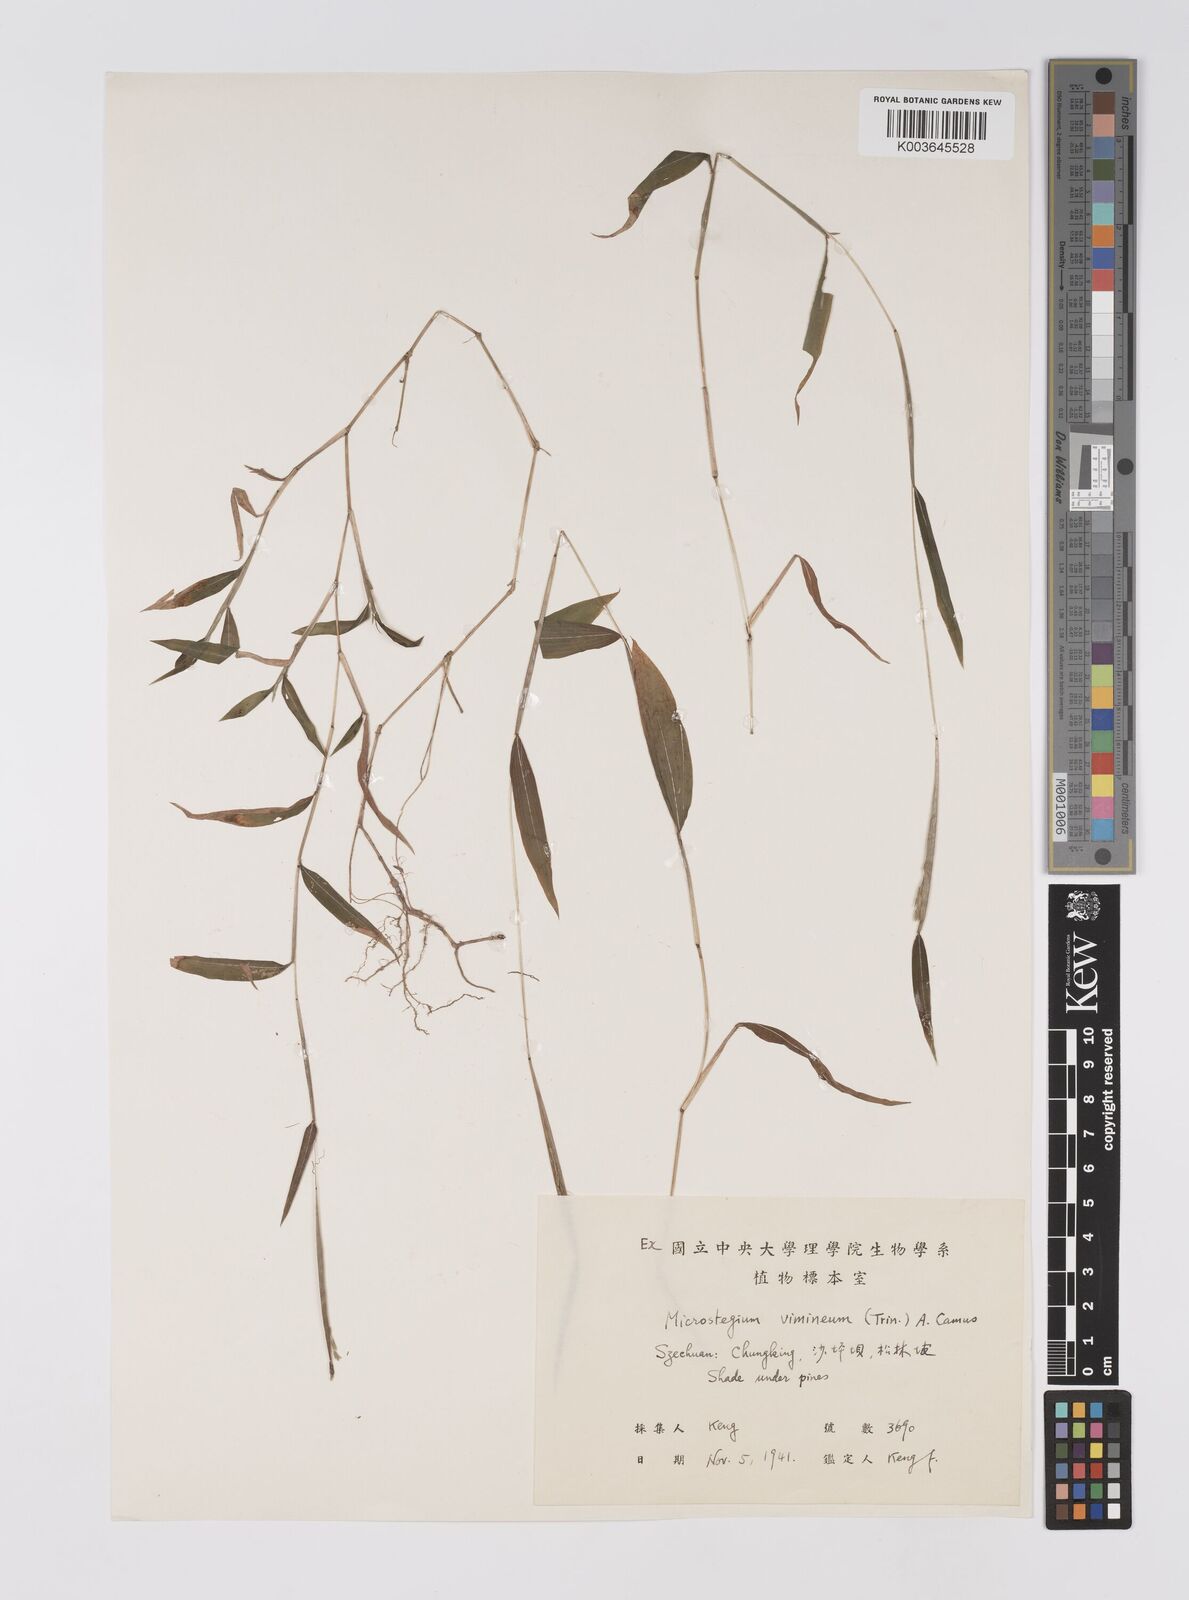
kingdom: Plantae
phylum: Tracheophyta
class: Liliopsida
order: Poales
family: Poaceae
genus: Microstegium
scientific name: Microstegium vimineum
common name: Japanese stiltgrass
